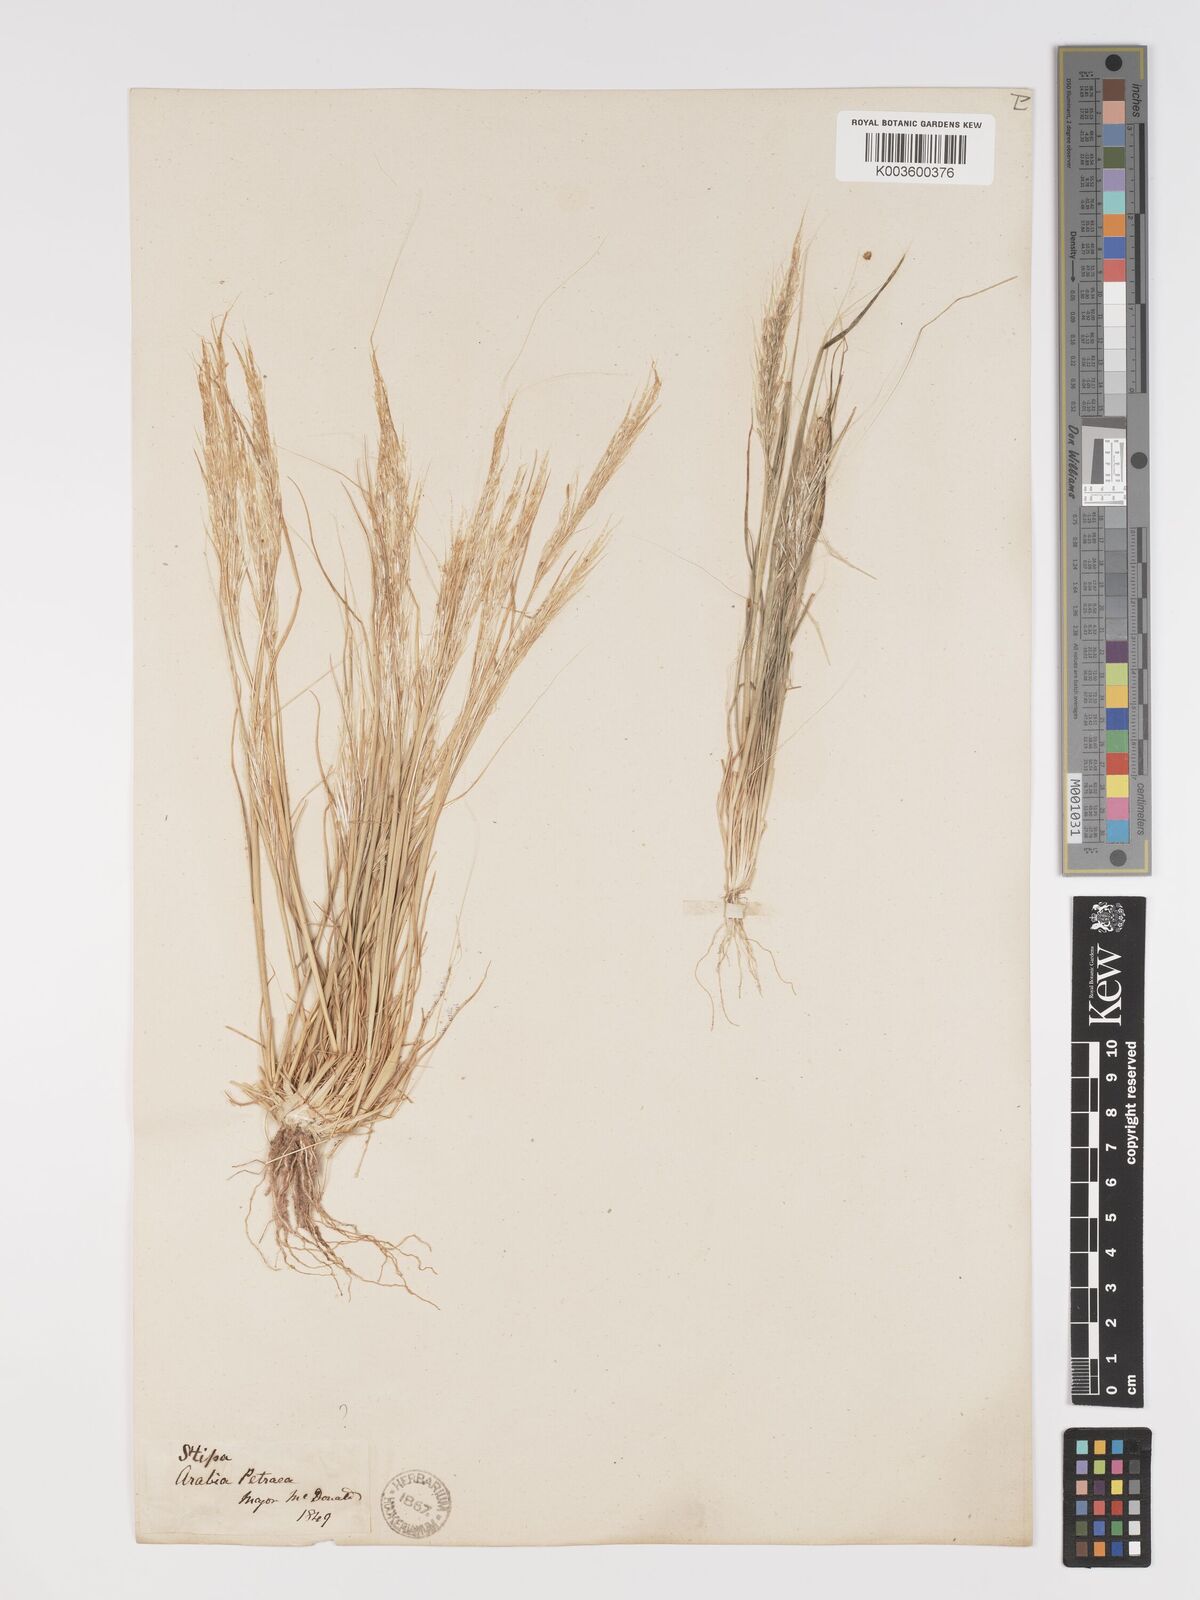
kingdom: Plantae
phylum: Tracheophyta
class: Liliopsida
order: Poales
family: Poaceae
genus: Stipellula
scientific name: Stipellula capensis
